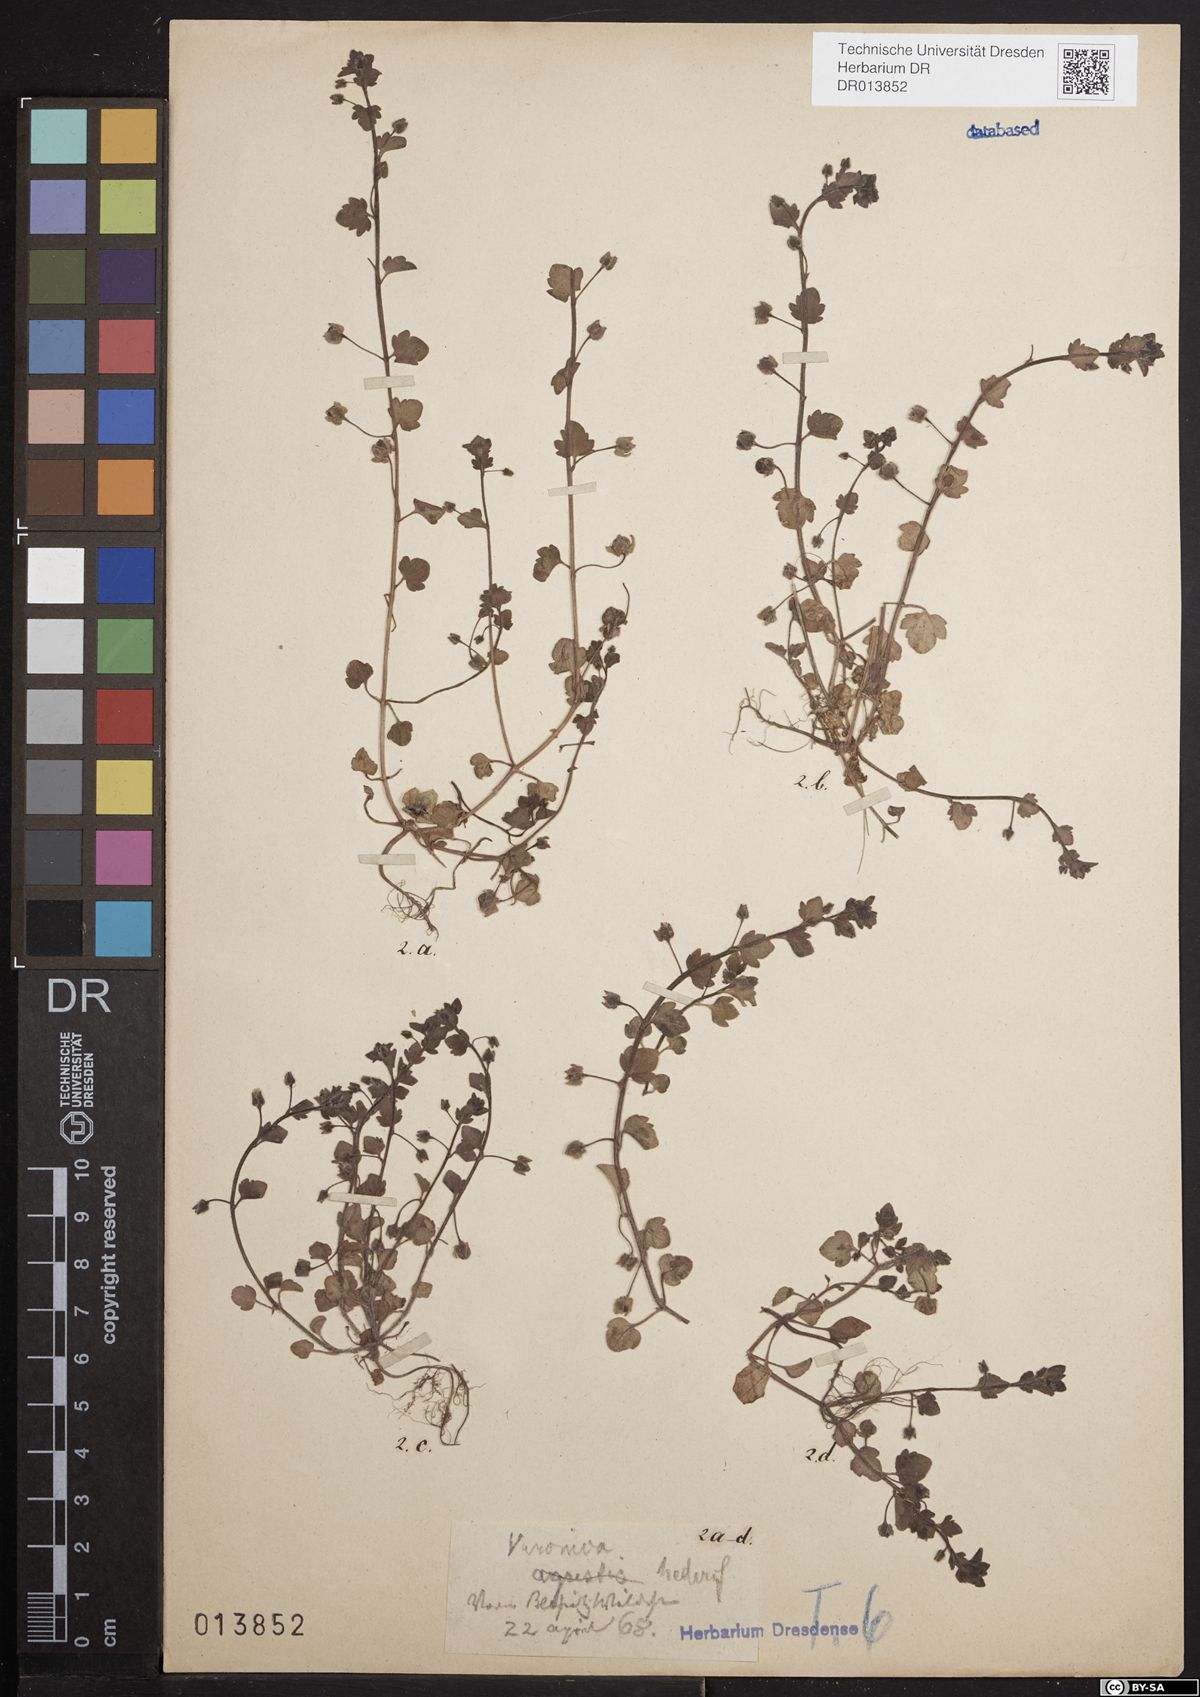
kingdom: Plantae
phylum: Tracheophyta
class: Magnoliopsida
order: Lamiales
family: Plantaginaceae
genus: Veronica
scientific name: Veronica hederifolia
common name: Ivy-leaved speedwell
